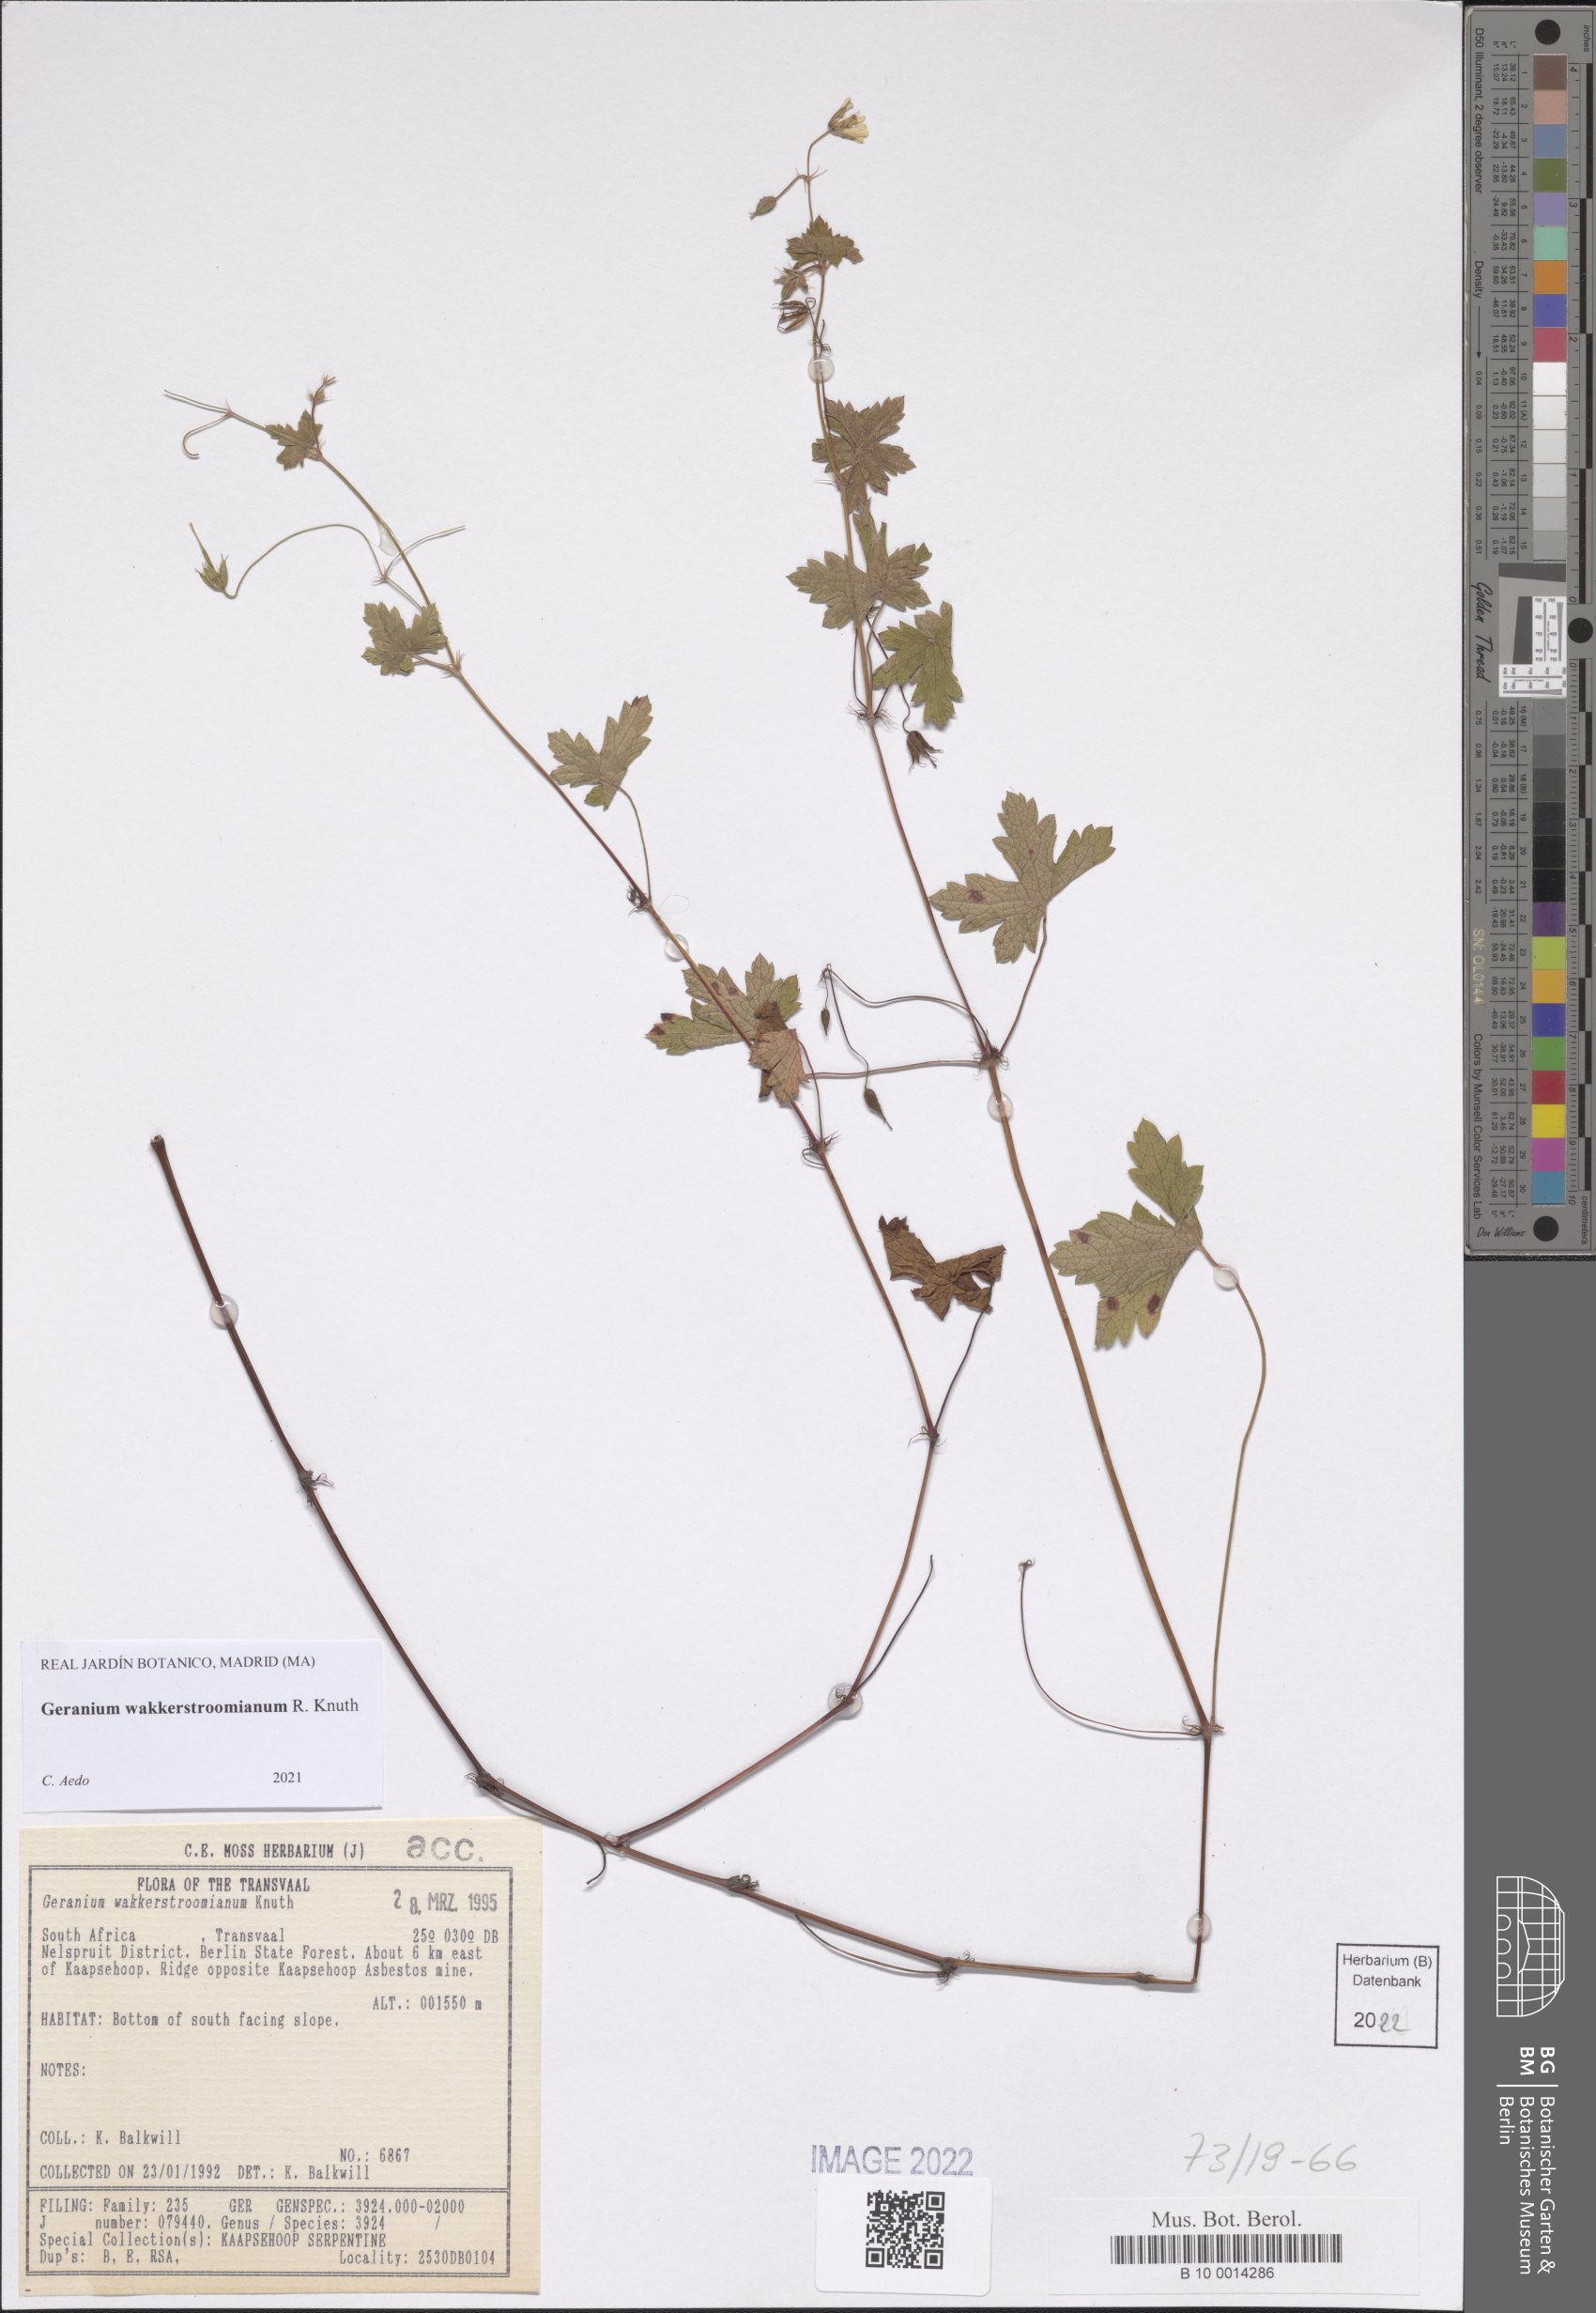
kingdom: Plantae
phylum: Tracheophyta
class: Magnoliopsida
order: Geraniales
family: Geraniaceae
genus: Geranium
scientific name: Geranium wakkerstroomianum
